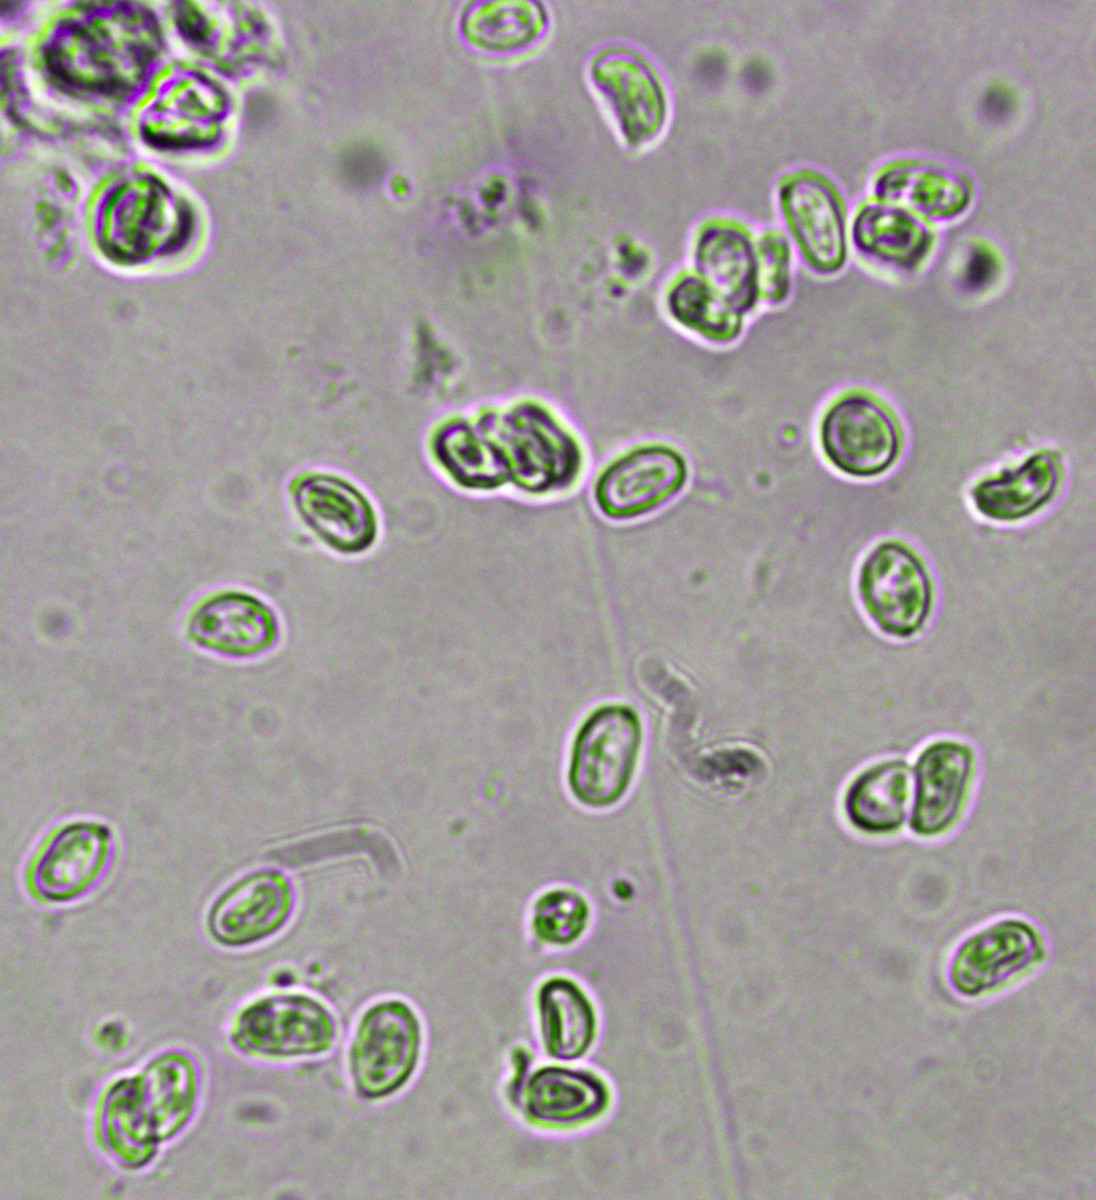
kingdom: Fungi
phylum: Basidiomycota
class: Agaricomycetes
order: Agaricales
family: Agaricaceae
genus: Lepiota
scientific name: Lepiota subincarnata
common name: kødfarvet parasolhat
